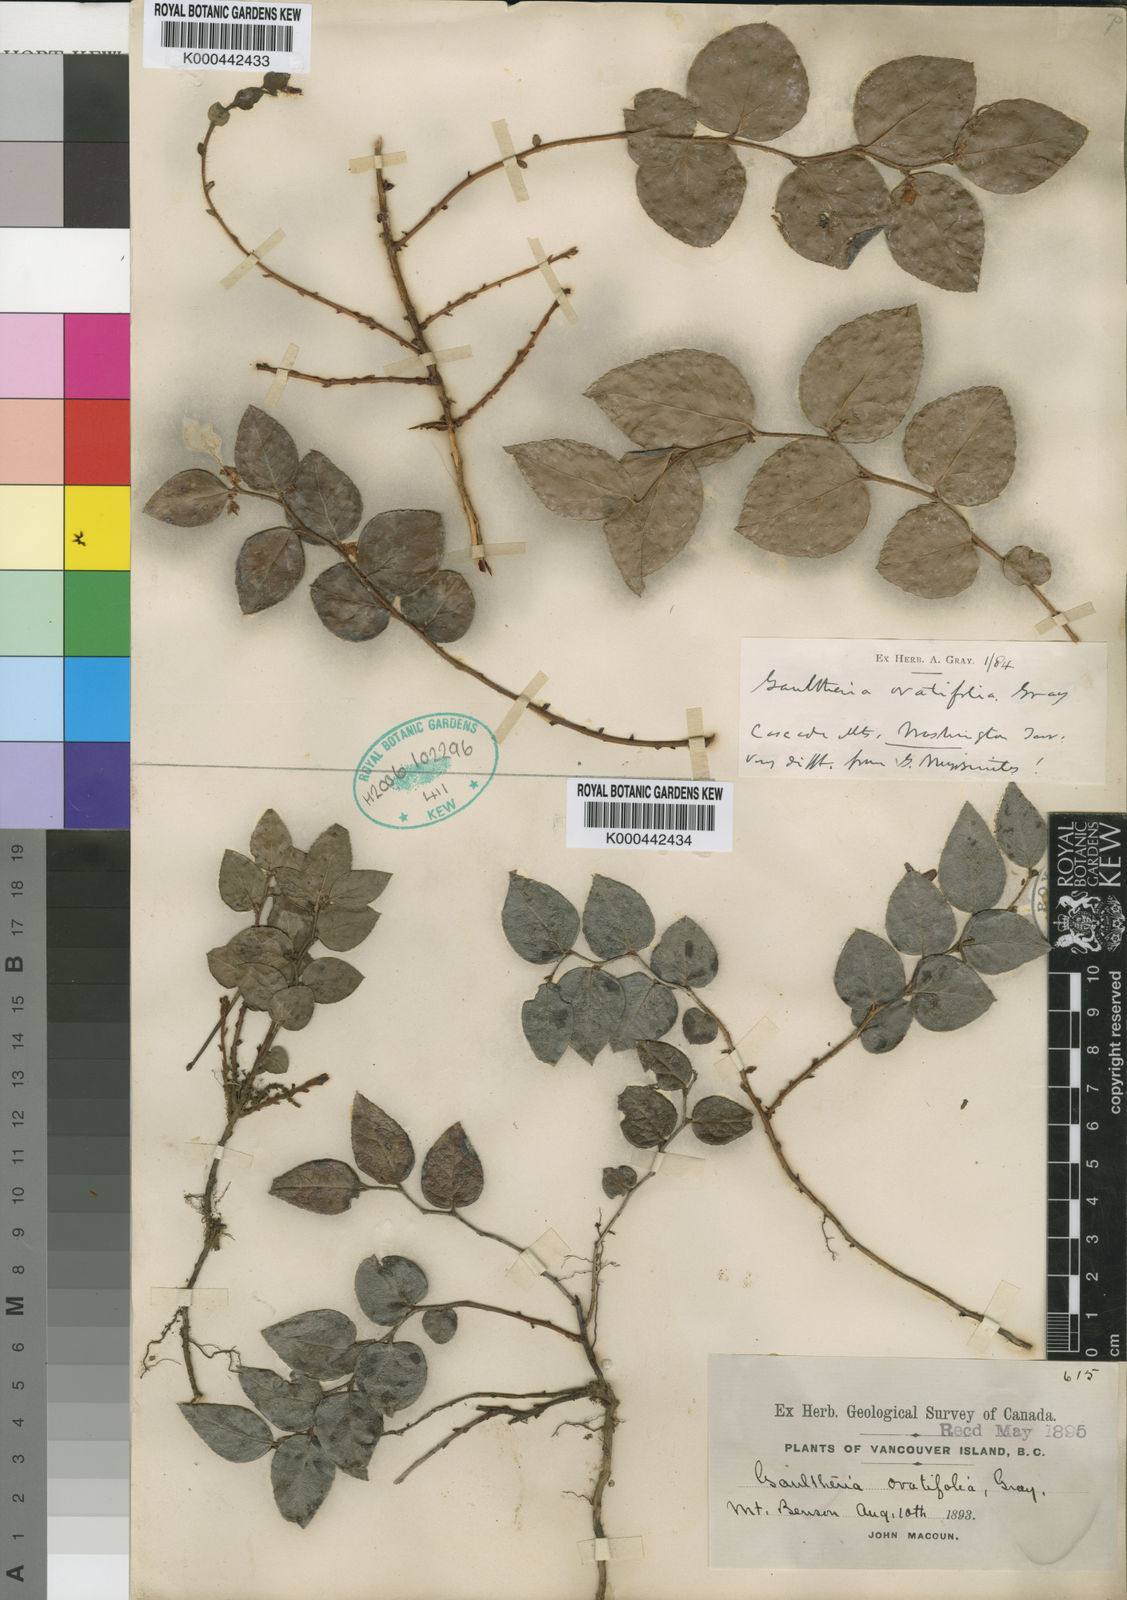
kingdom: Plantae
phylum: Tracheophyta
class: Magnoliopsida
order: Ericales
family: Ericaceae
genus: Gaultheria
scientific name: Gaultheria ovatifolia
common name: Oregon wintergreen
